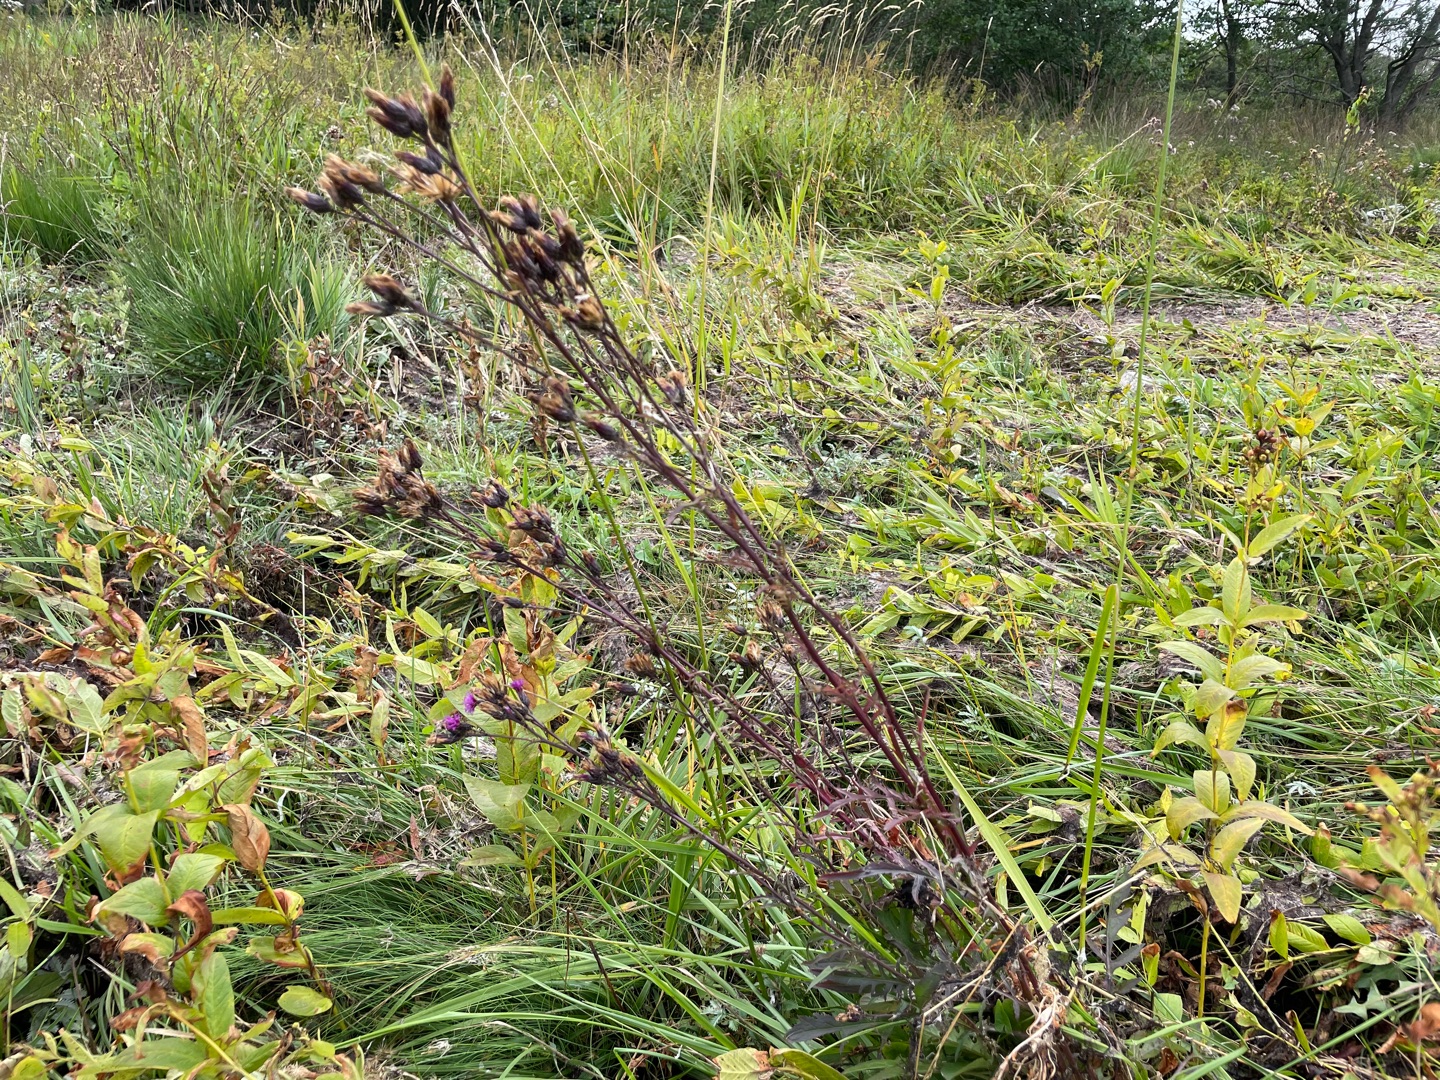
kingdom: Plantae
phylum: Tracheophyta
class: Magnoliopsida
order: Asterales
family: Asteraceae
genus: Serratula
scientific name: Serratula tinctoria
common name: Eng-skær
